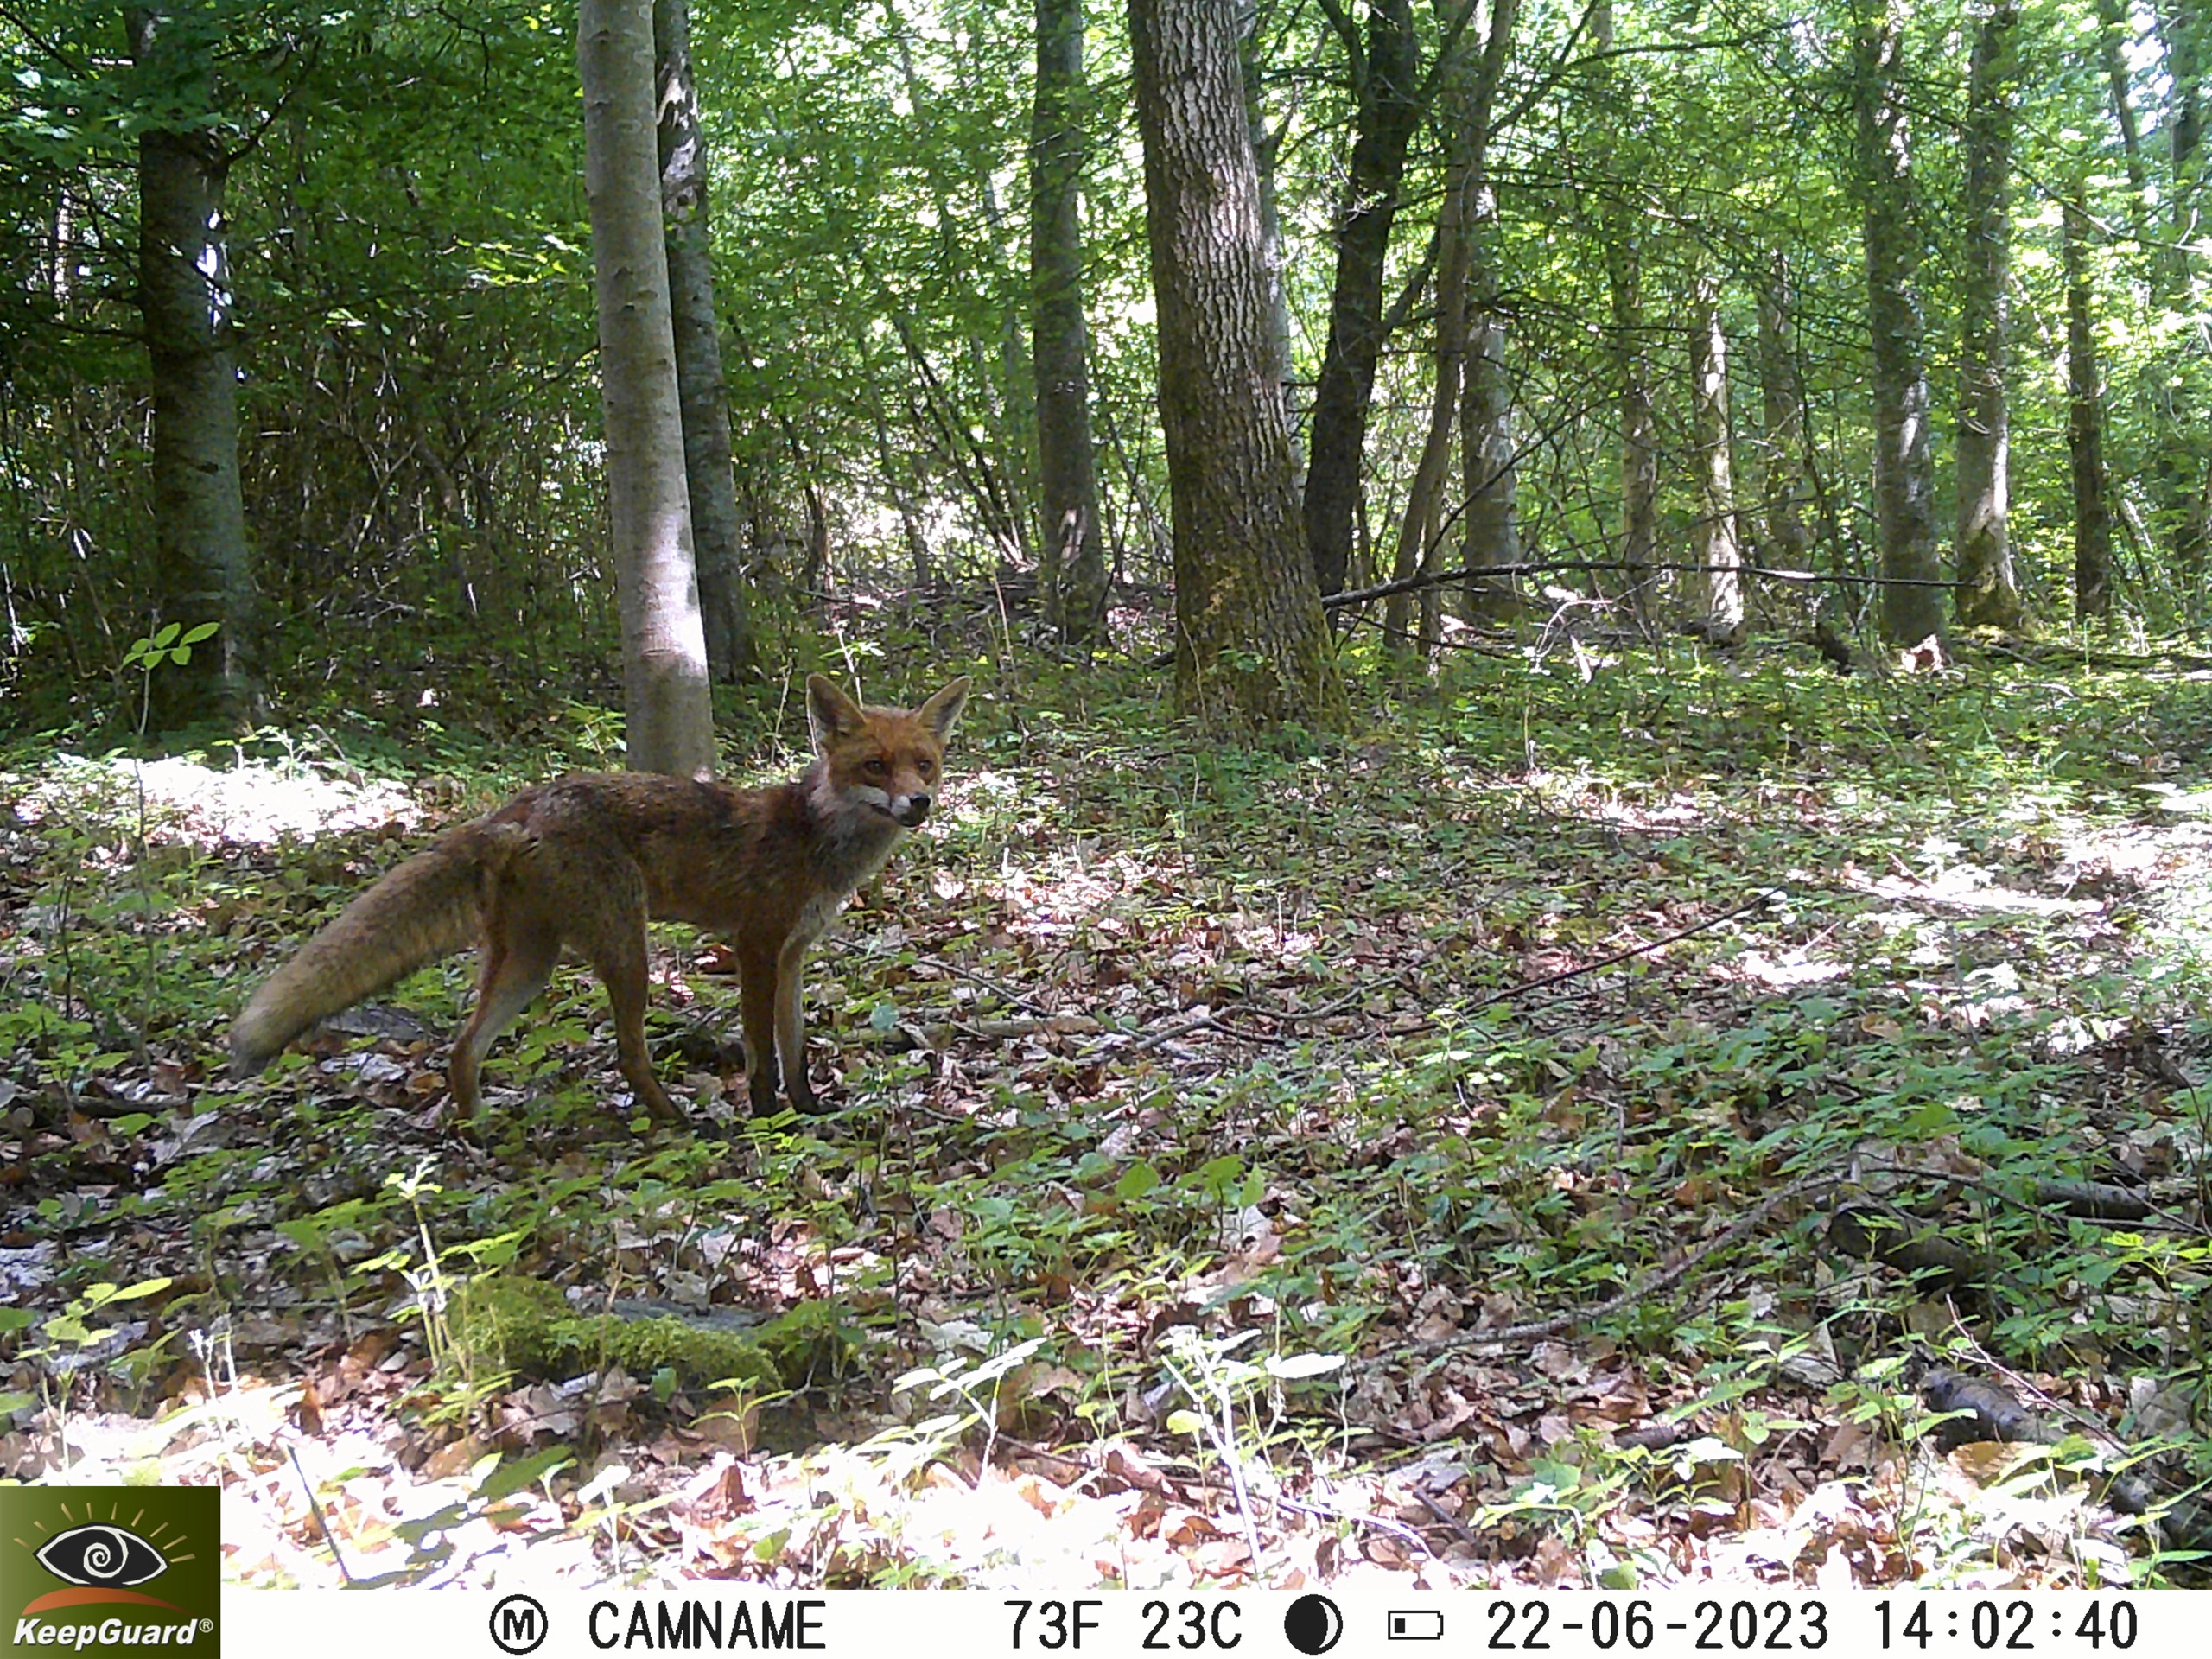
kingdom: Animalia
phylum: Chordata
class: Mammalia
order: Carnivora
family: Canidae
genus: Vulpes
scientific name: Vulpes vulpes
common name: Ræv
